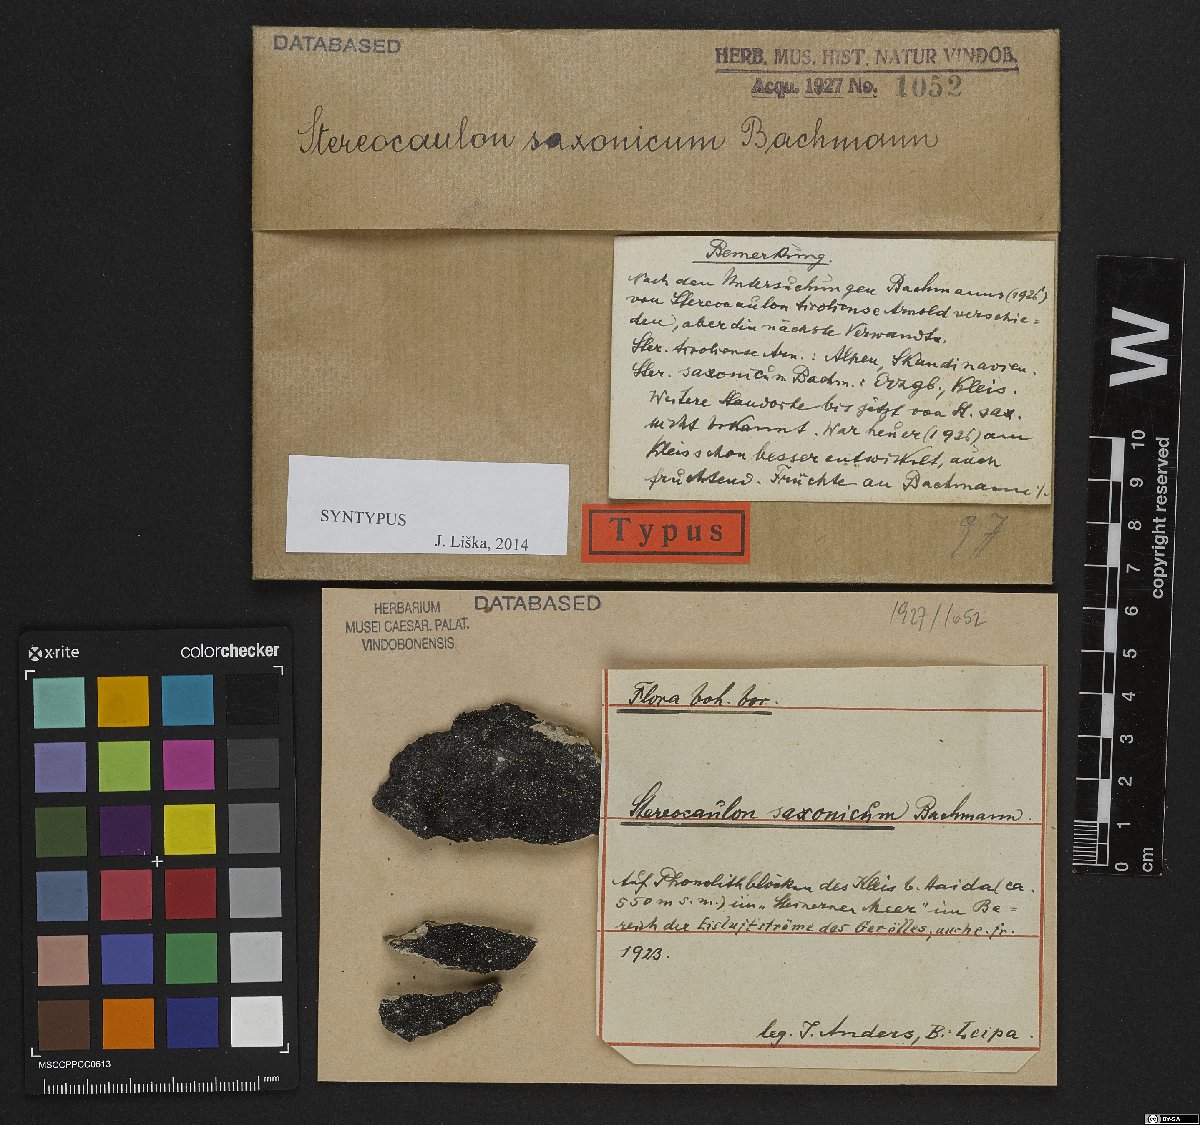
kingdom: Fungi
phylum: Ascomycota
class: Lecanoromycetes
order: Lecanorales
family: Stereocaulaceae
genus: Stereocaulon
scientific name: Stereocaulon pileatum
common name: Pixie foam
